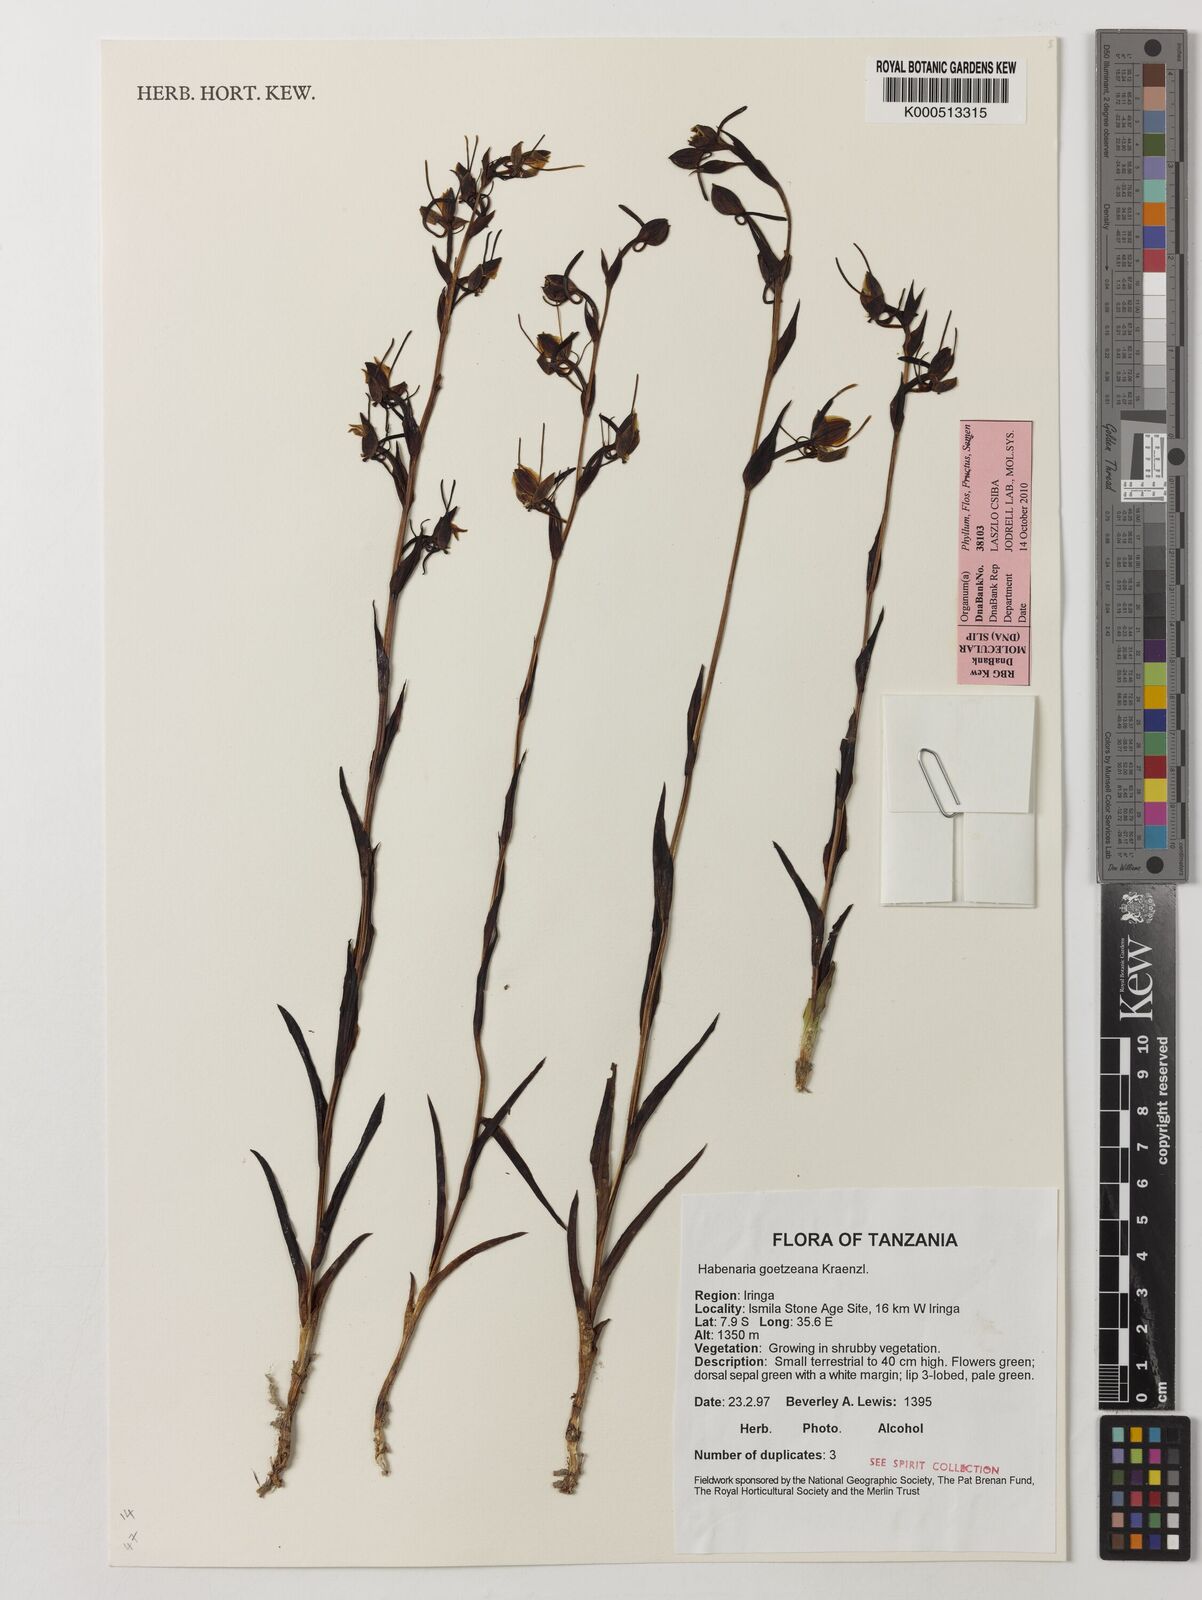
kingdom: Plantae
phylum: Tracheophyta
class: Liliopsida
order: Asparagales
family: Orchidaceae
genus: Habenaria
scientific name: Habenaria goetzeana
